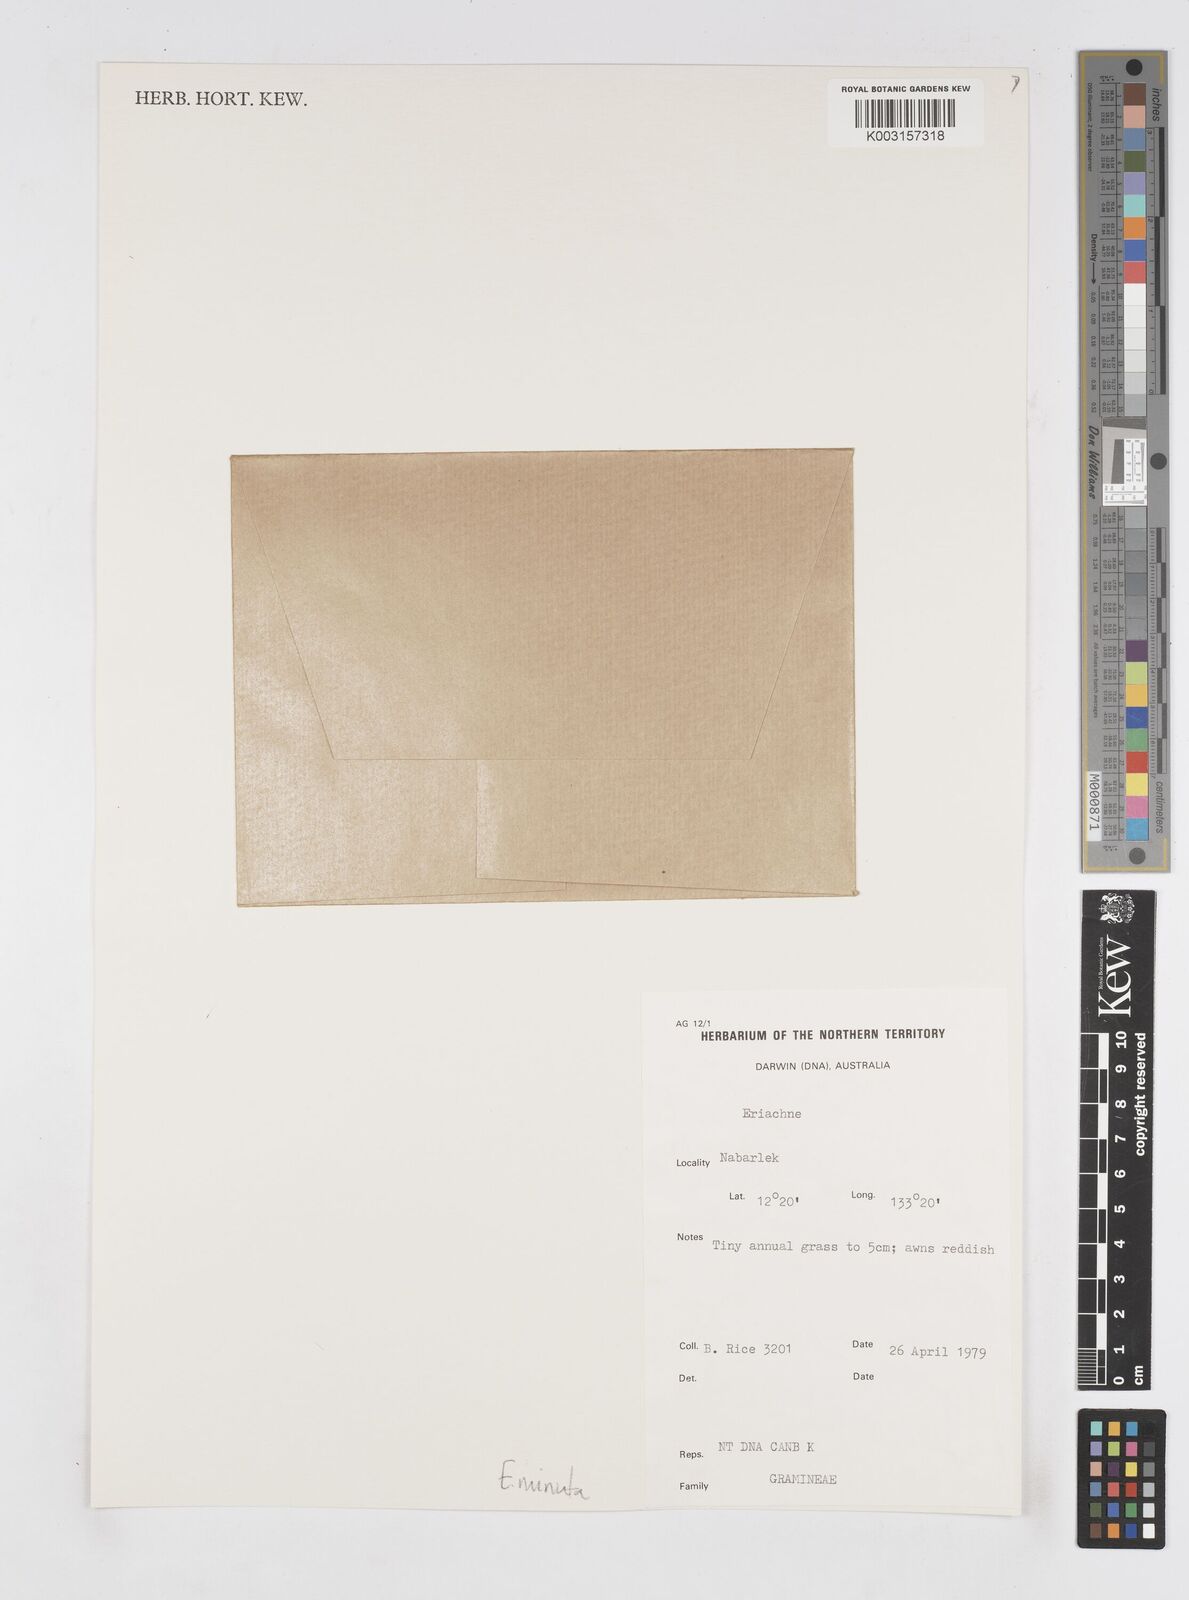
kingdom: Plantae
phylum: Tracheophyta
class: Liliopsida
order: Poales
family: Poaceae
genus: Eriachne
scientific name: Eriachne minuta
